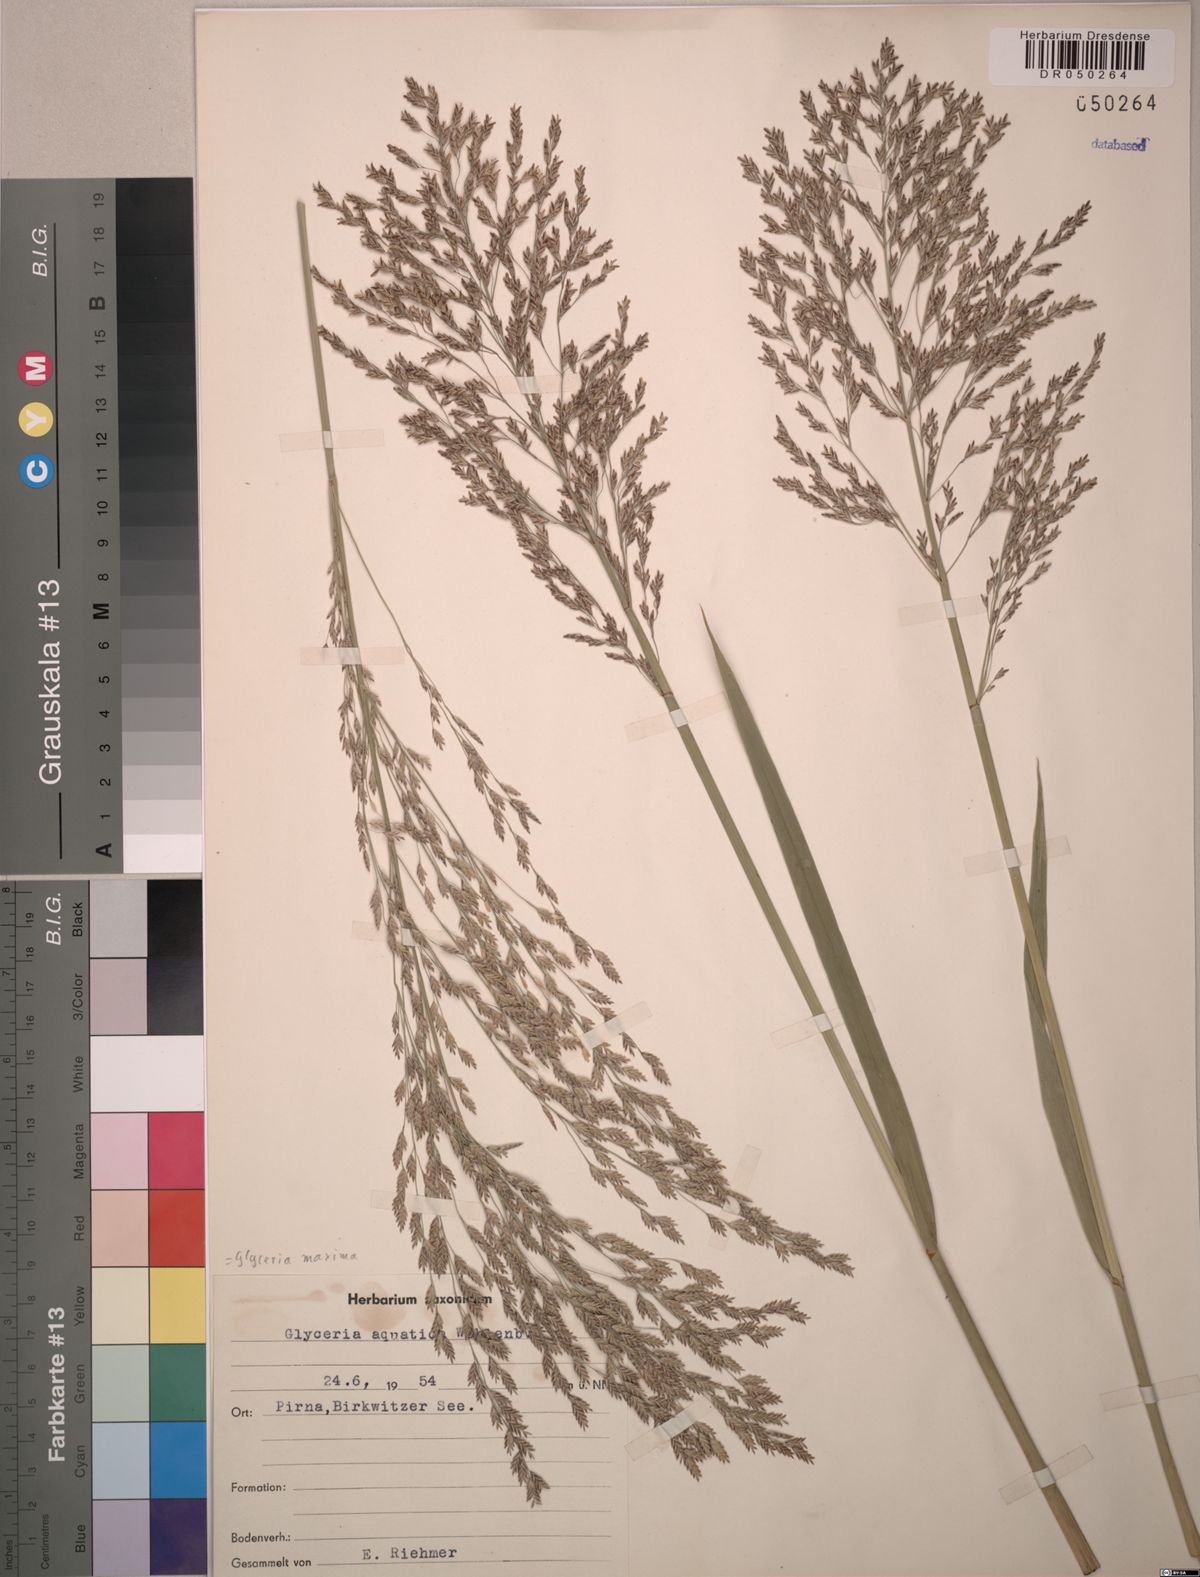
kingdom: Plantae
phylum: Tracheophyta
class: Liliopsida
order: Poales
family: Poaceae
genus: Glyceria
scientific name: Glyceria maxima
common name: Reed mannagrass
